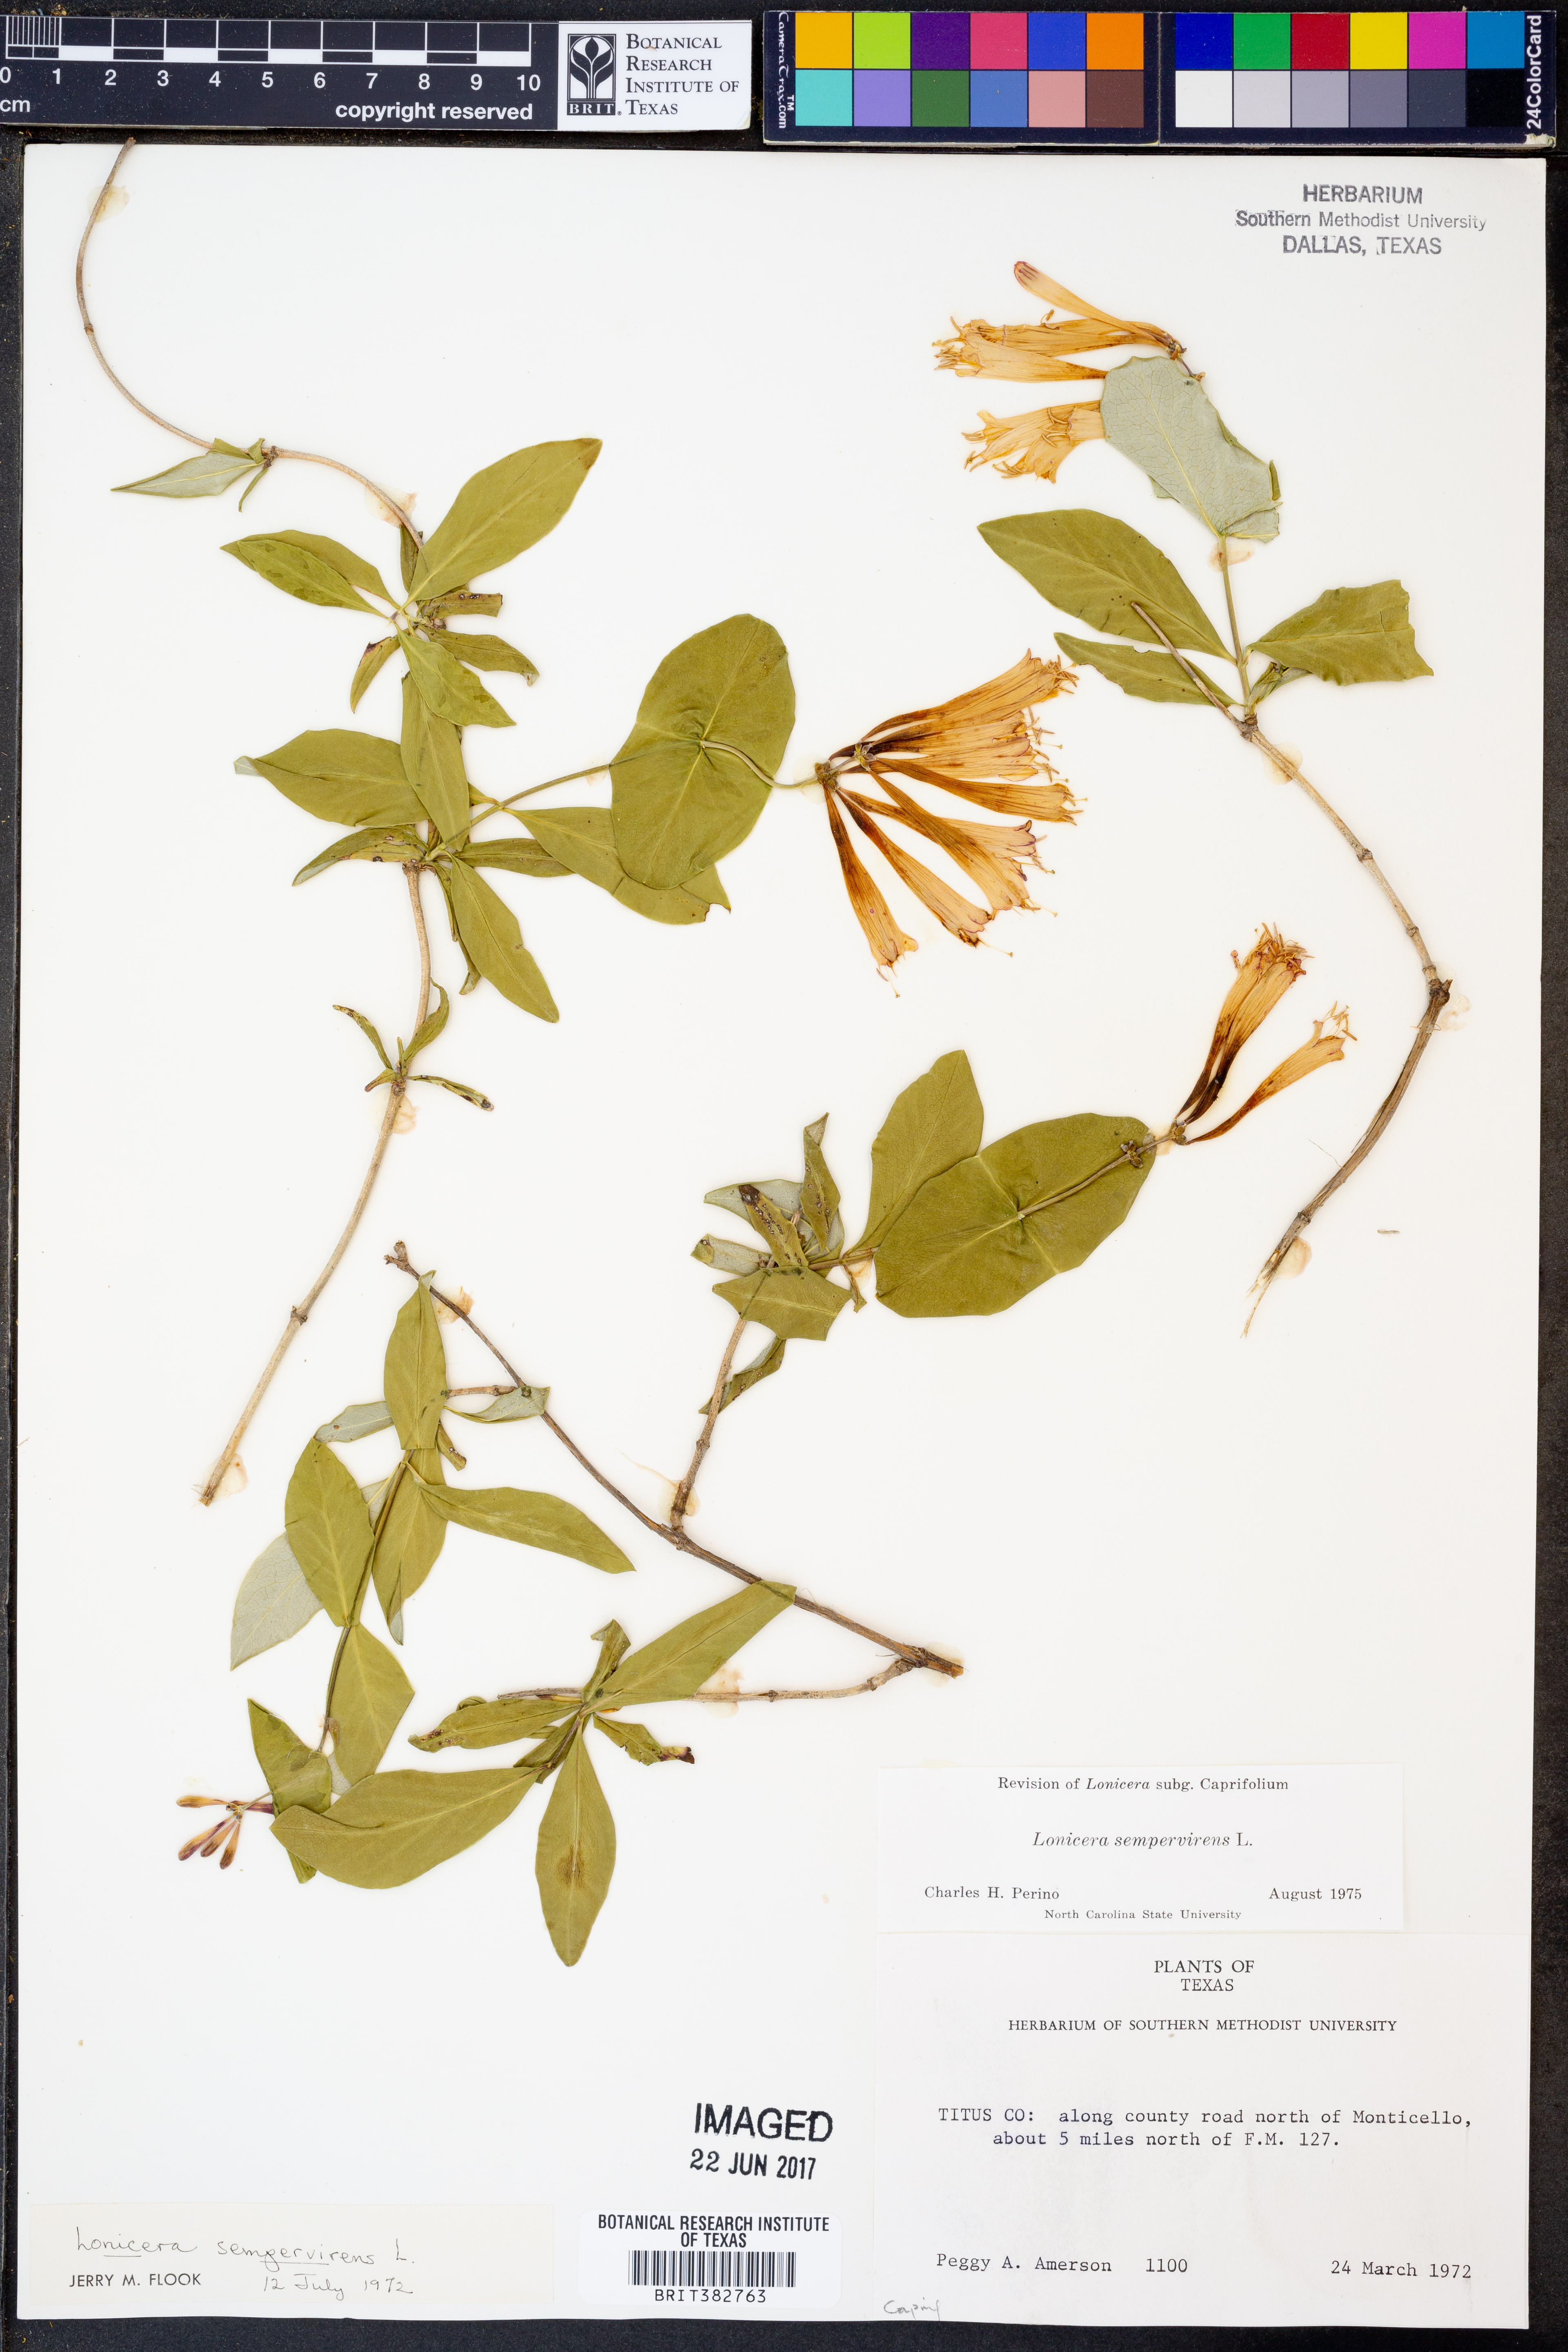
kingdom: Plantae
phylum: Tracheophyta
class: Magnoliopsida
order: Dipsacales
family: Caprifoliaceae
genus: Lonicera
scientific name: Lonicera sempervirens
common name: Coral honeysuckle
